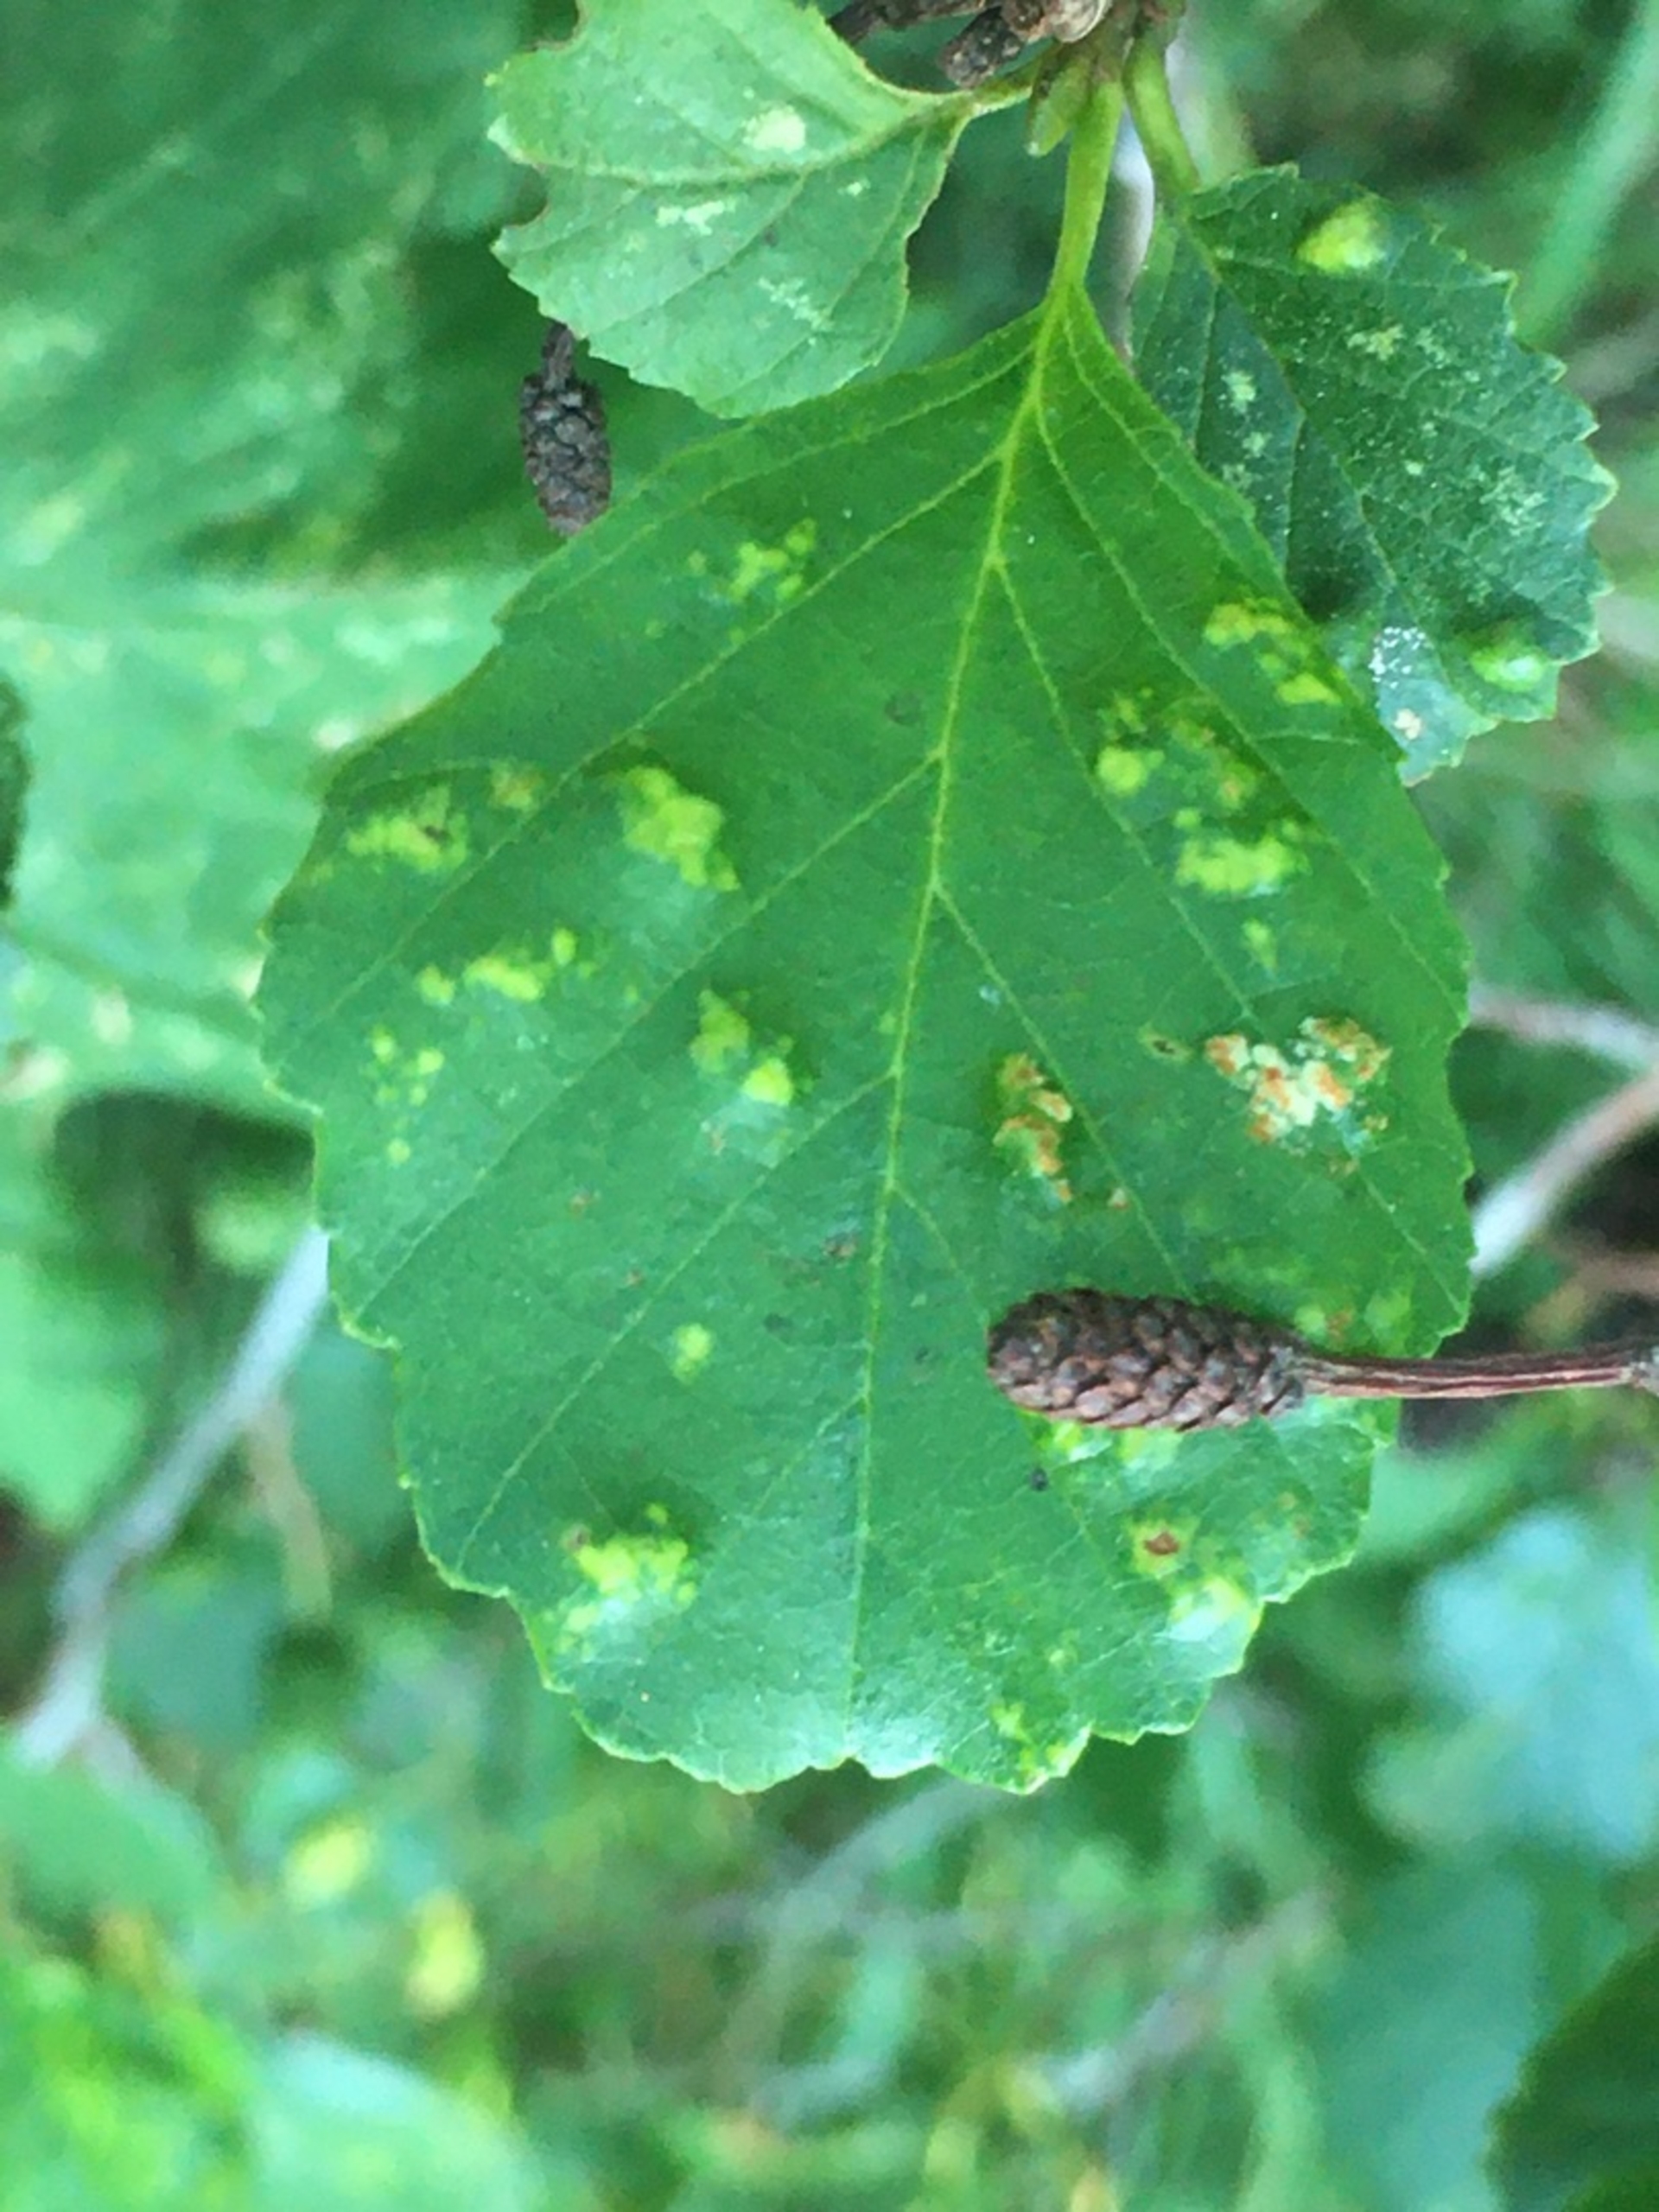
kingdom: Animalia
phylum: Arthropoda
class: Arachnida
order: Trombidiformes
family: Eriophyidae
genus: Acalitus
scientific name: Acalitus brevitarsus
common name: Ellefiltgalmide
